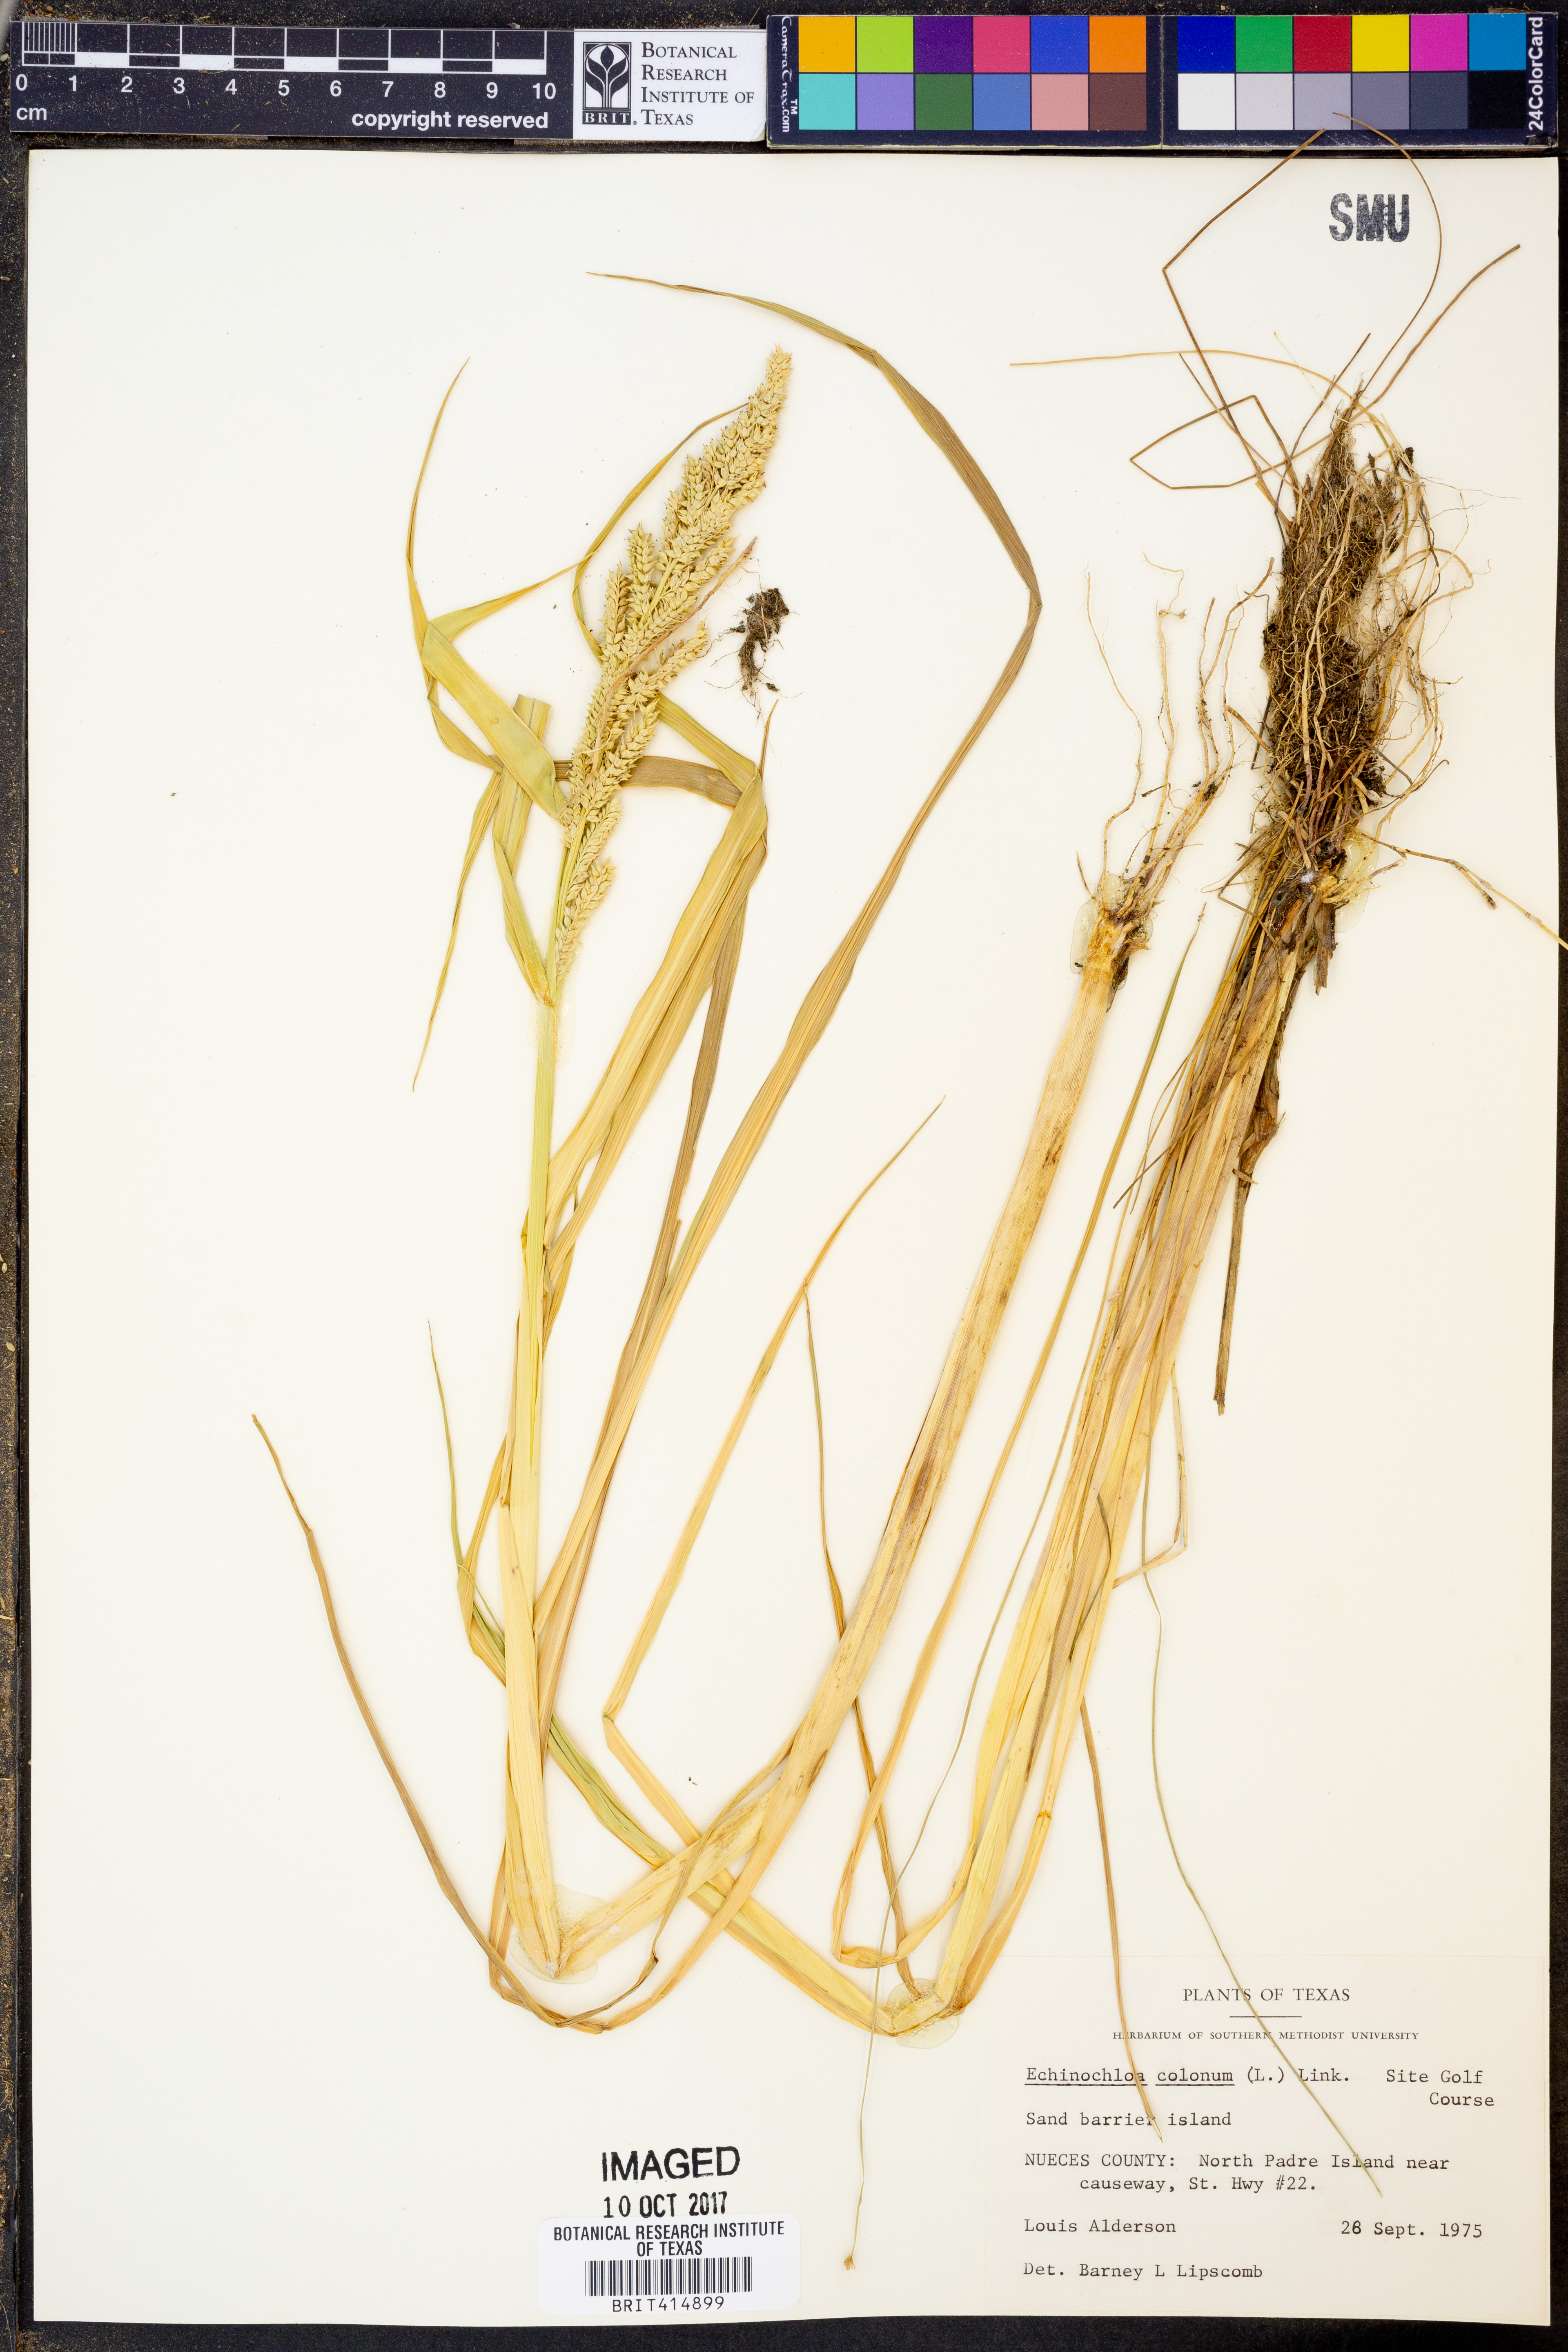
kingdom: Plantae
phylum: Tracheophyta
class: Liliopsida
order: Poales
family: Poaceae
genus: Echinochloa
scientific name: Echinochloa colonum
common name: Jungle rice
